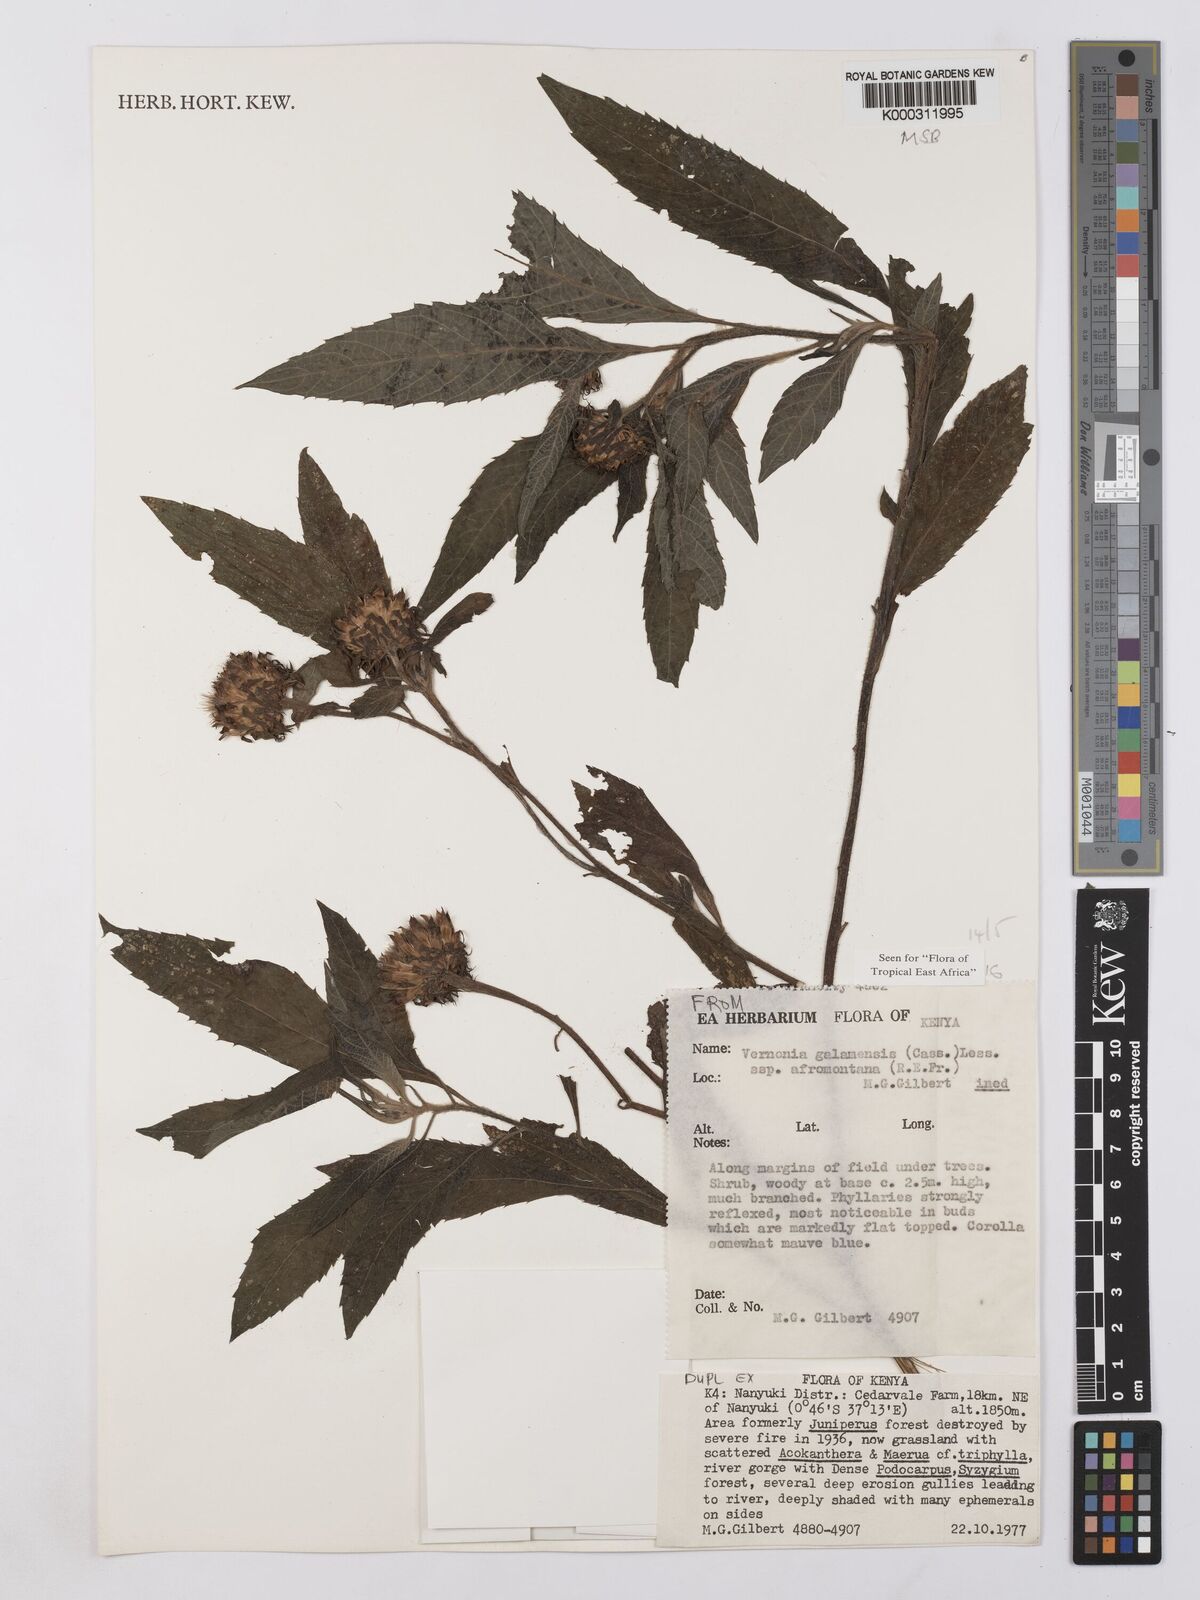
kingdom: Plantae
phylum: Tracheophyta
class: Magnoliopsida
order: Asterales
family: Asteraceae
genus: Vernonia
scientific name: Vernonia galamensis
